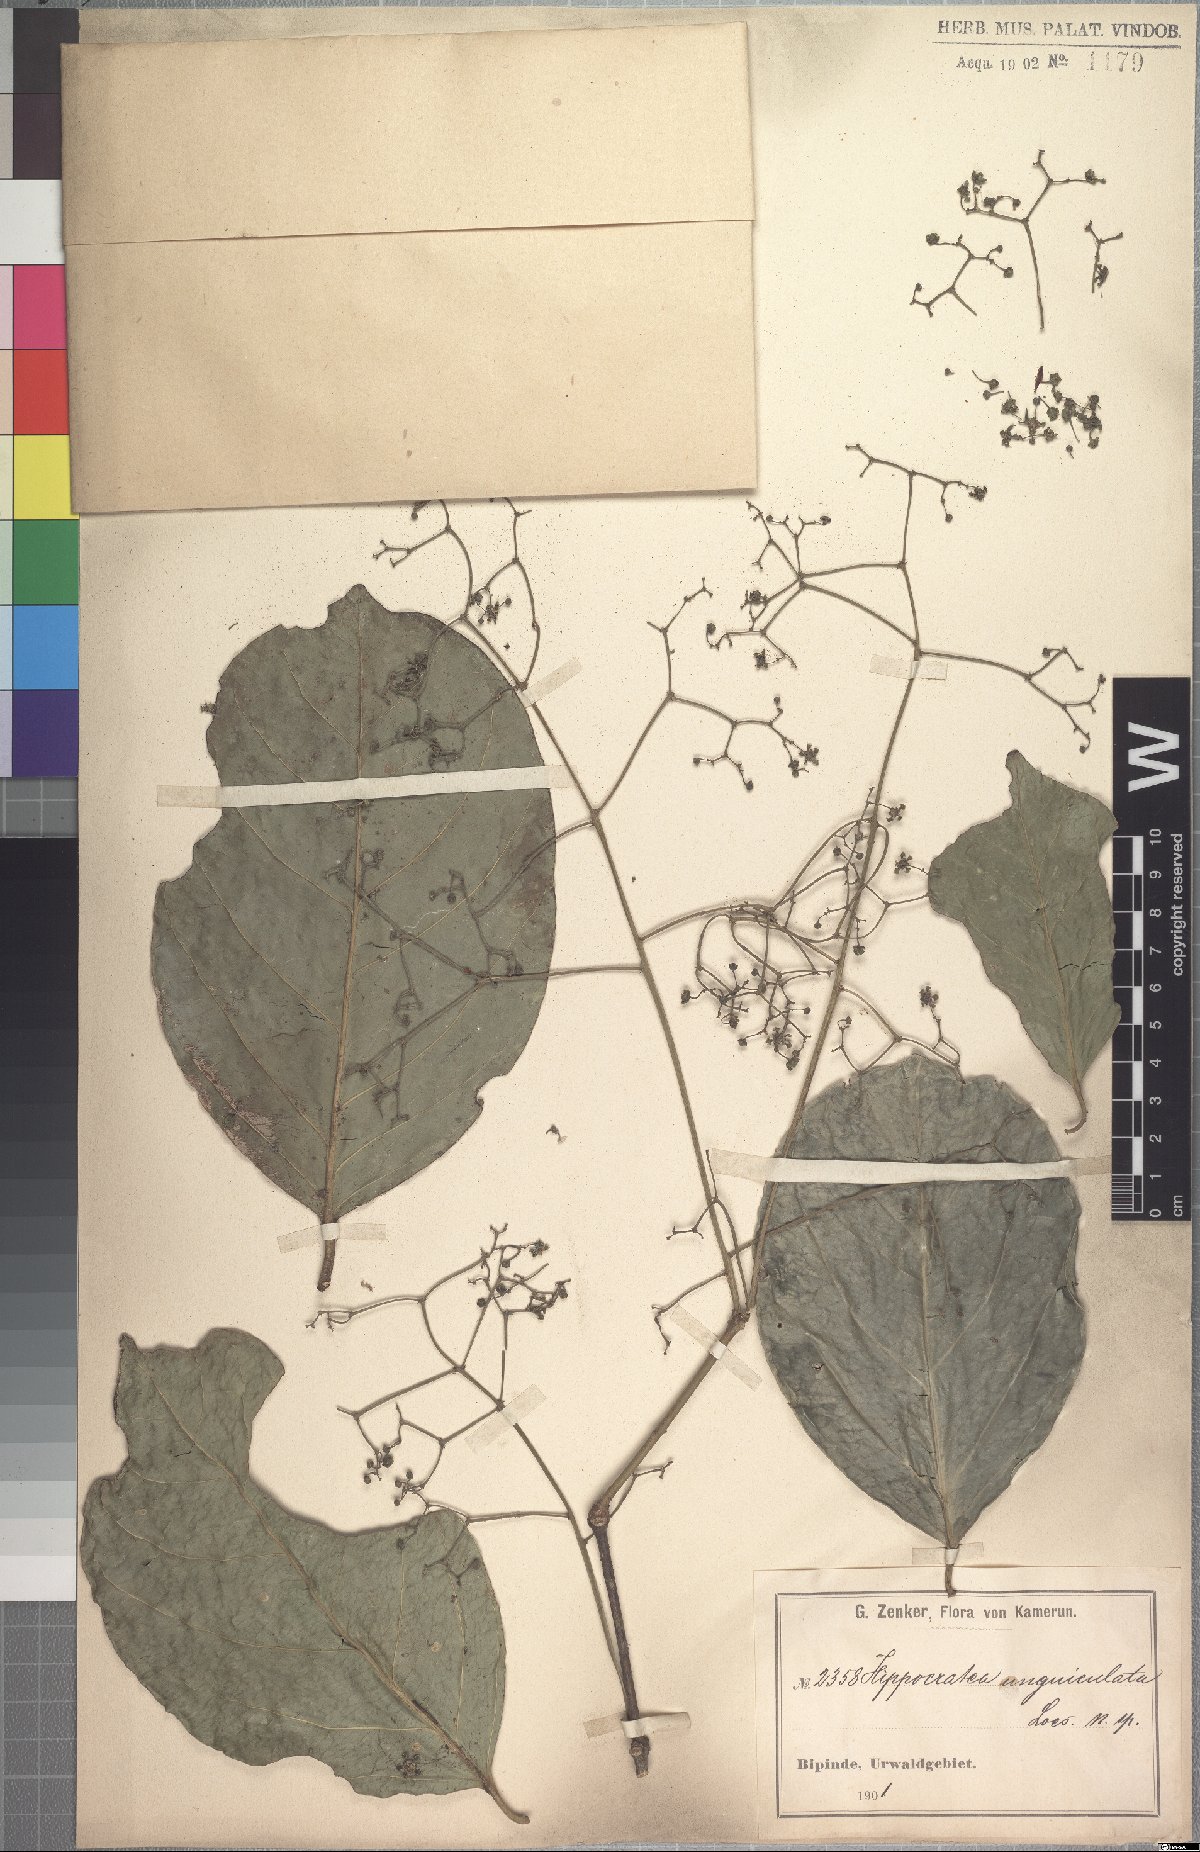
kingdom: Plantae
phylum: Tracheophyta
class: Magnoliopsida
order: Celastrales
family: Celastraceae
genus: Pristimera
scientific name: Pristimera unguiculata
